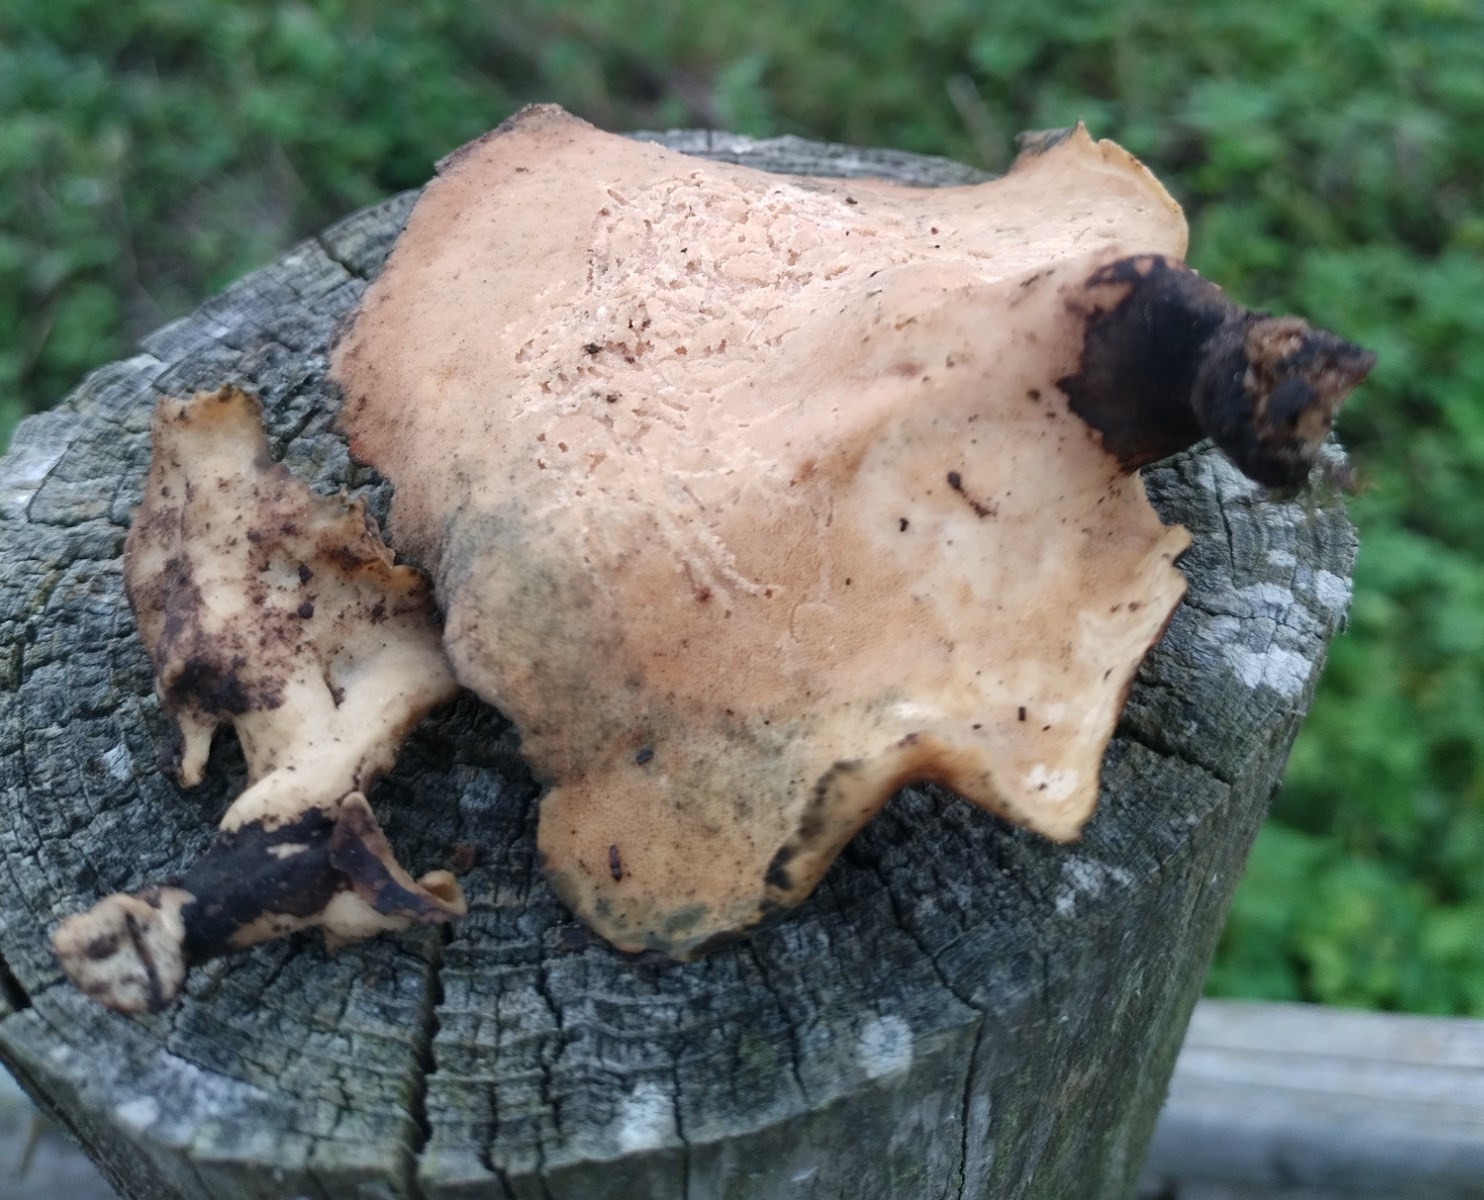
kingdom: Fungi
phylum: Basidiomycota
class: Agaricomycetes
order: Polyporales
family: Polyporaceae
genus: Picipes
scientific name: Picipes
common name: stilkporesvamp
